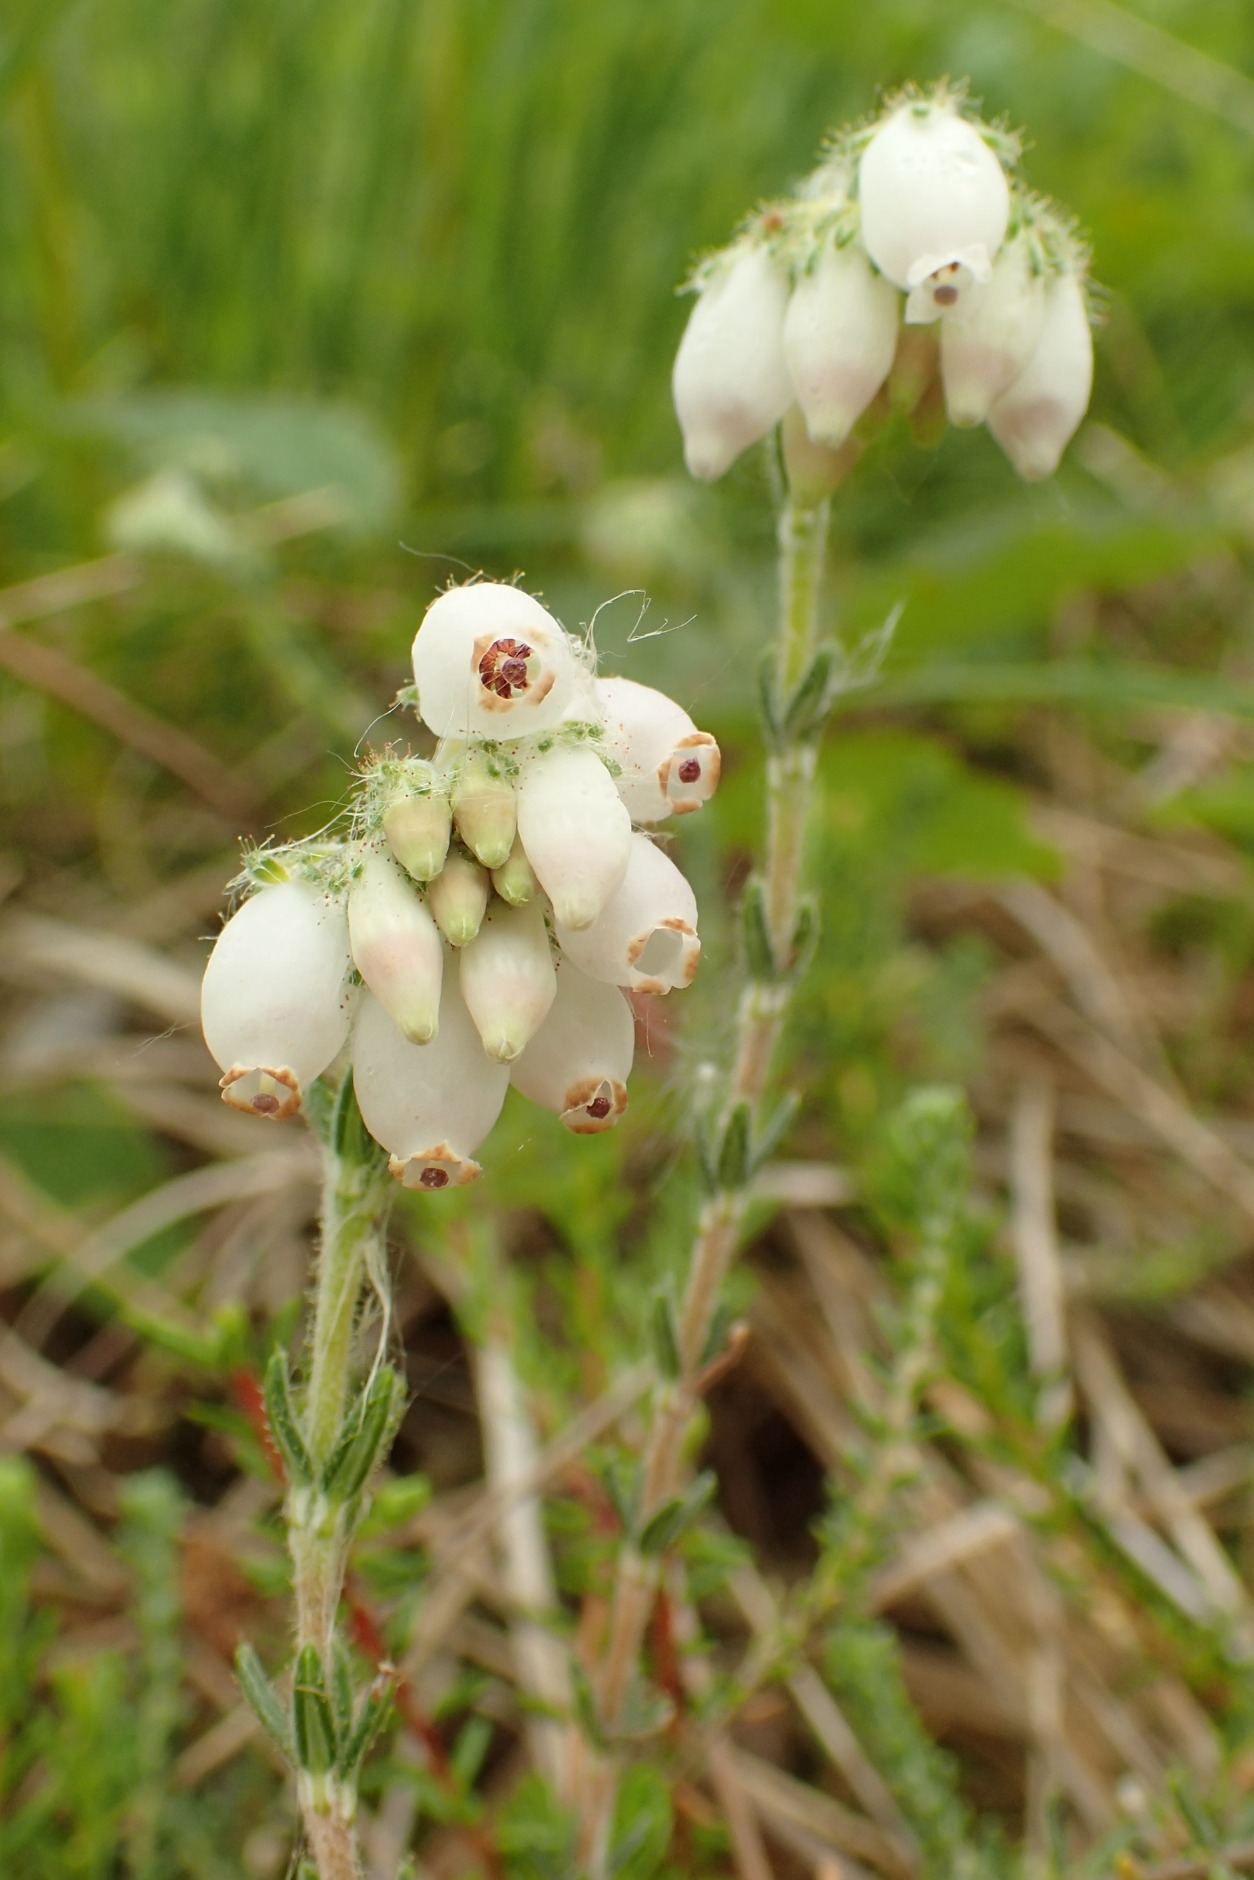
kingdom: Plantae
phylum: Tracheophyta
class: Magnoliopsida
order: Ericales
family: Ericaceae
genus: Erica
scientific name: Erica tetralix
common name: Klokkelyng
